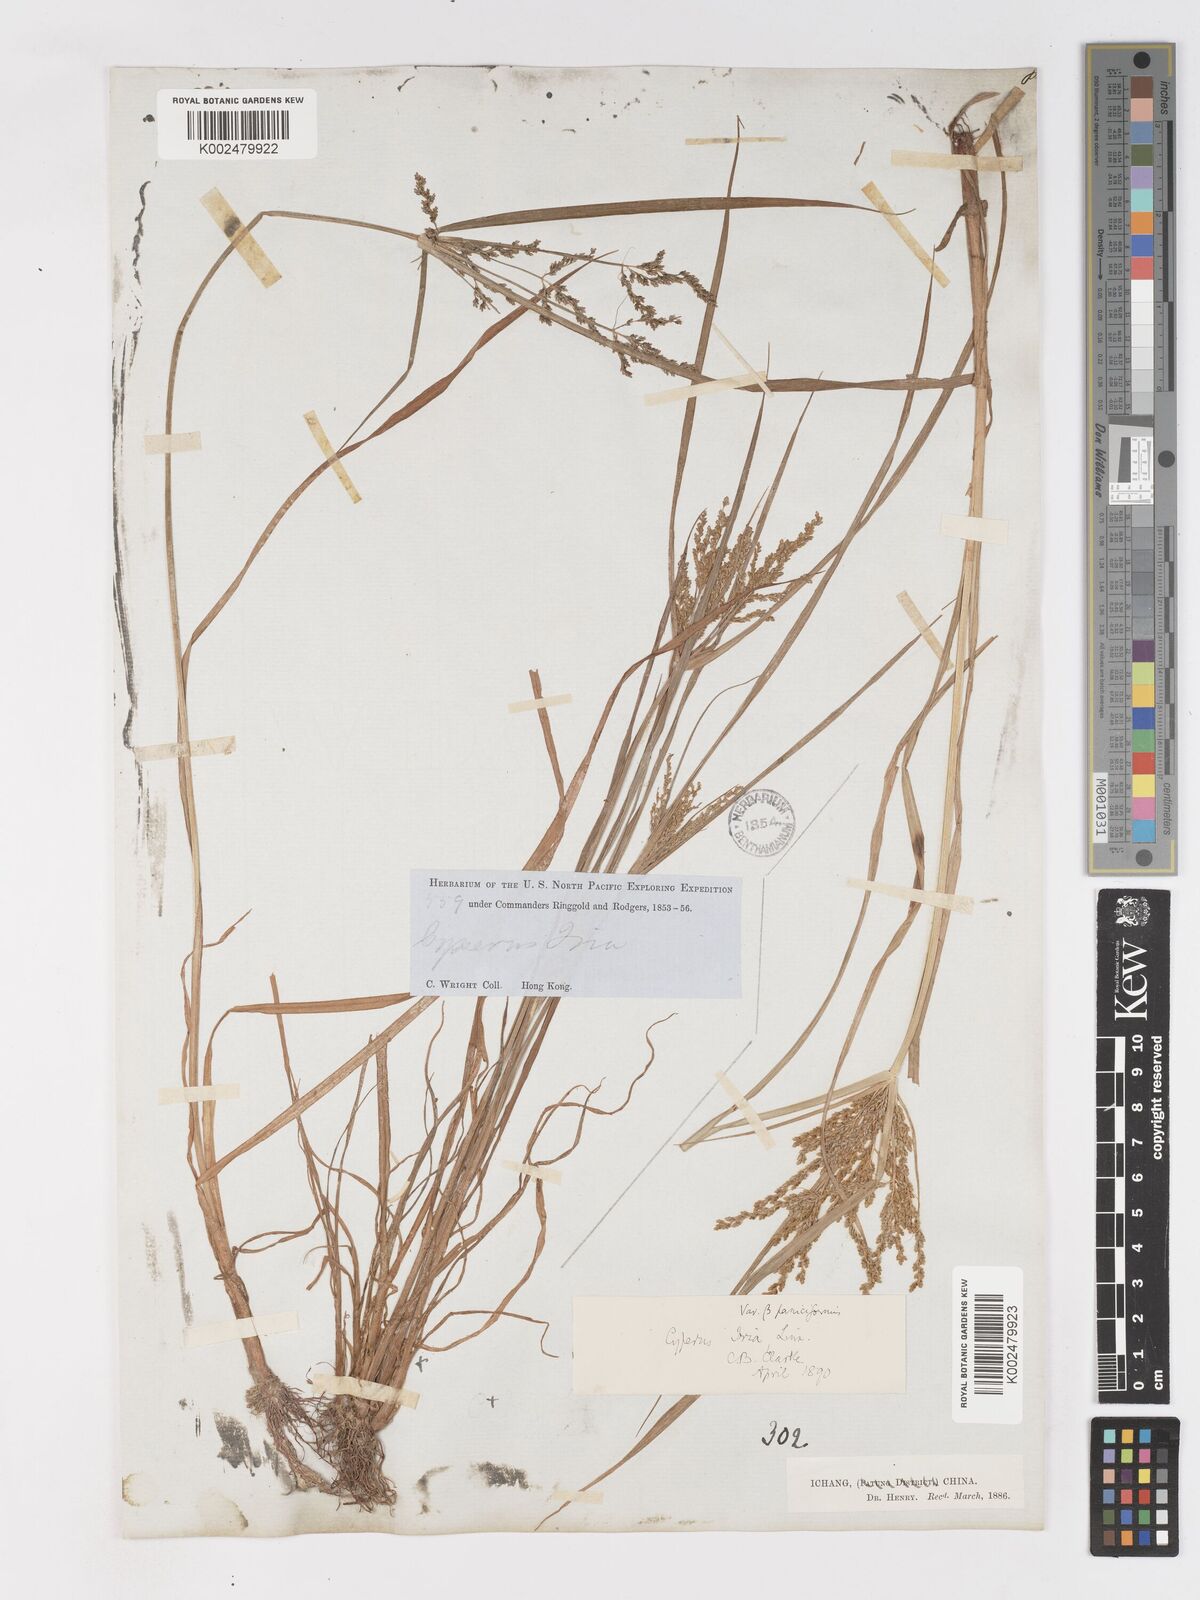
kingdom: Plantae
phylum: Tracheophyta
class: Liliopsida
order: Poales
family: Cyperaceae
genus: Cyperus
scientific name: Cyperus iria
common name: Ricefield flatsedge
